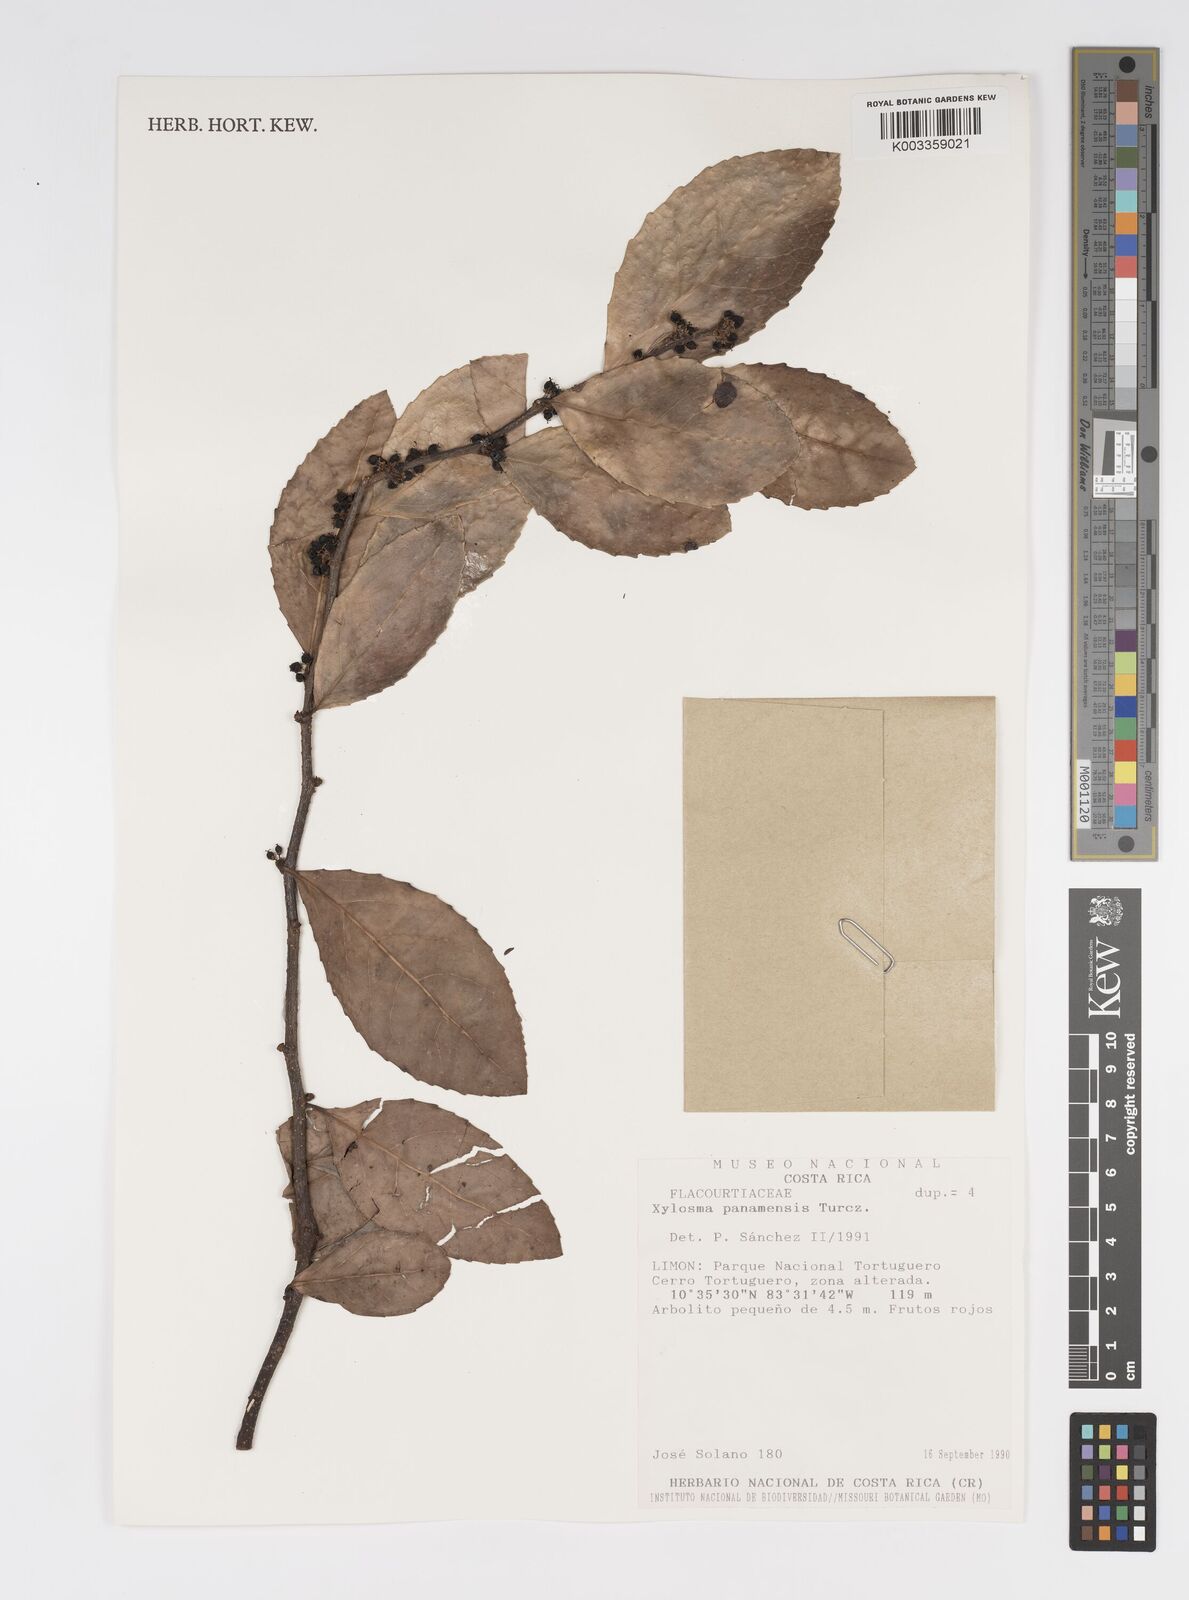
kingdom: Plantae
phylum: Tracheophyta
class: Magnoliopsida
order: Malpighiales
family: Salicaceae
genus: Xylosma
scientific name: Xylosma panamensis
